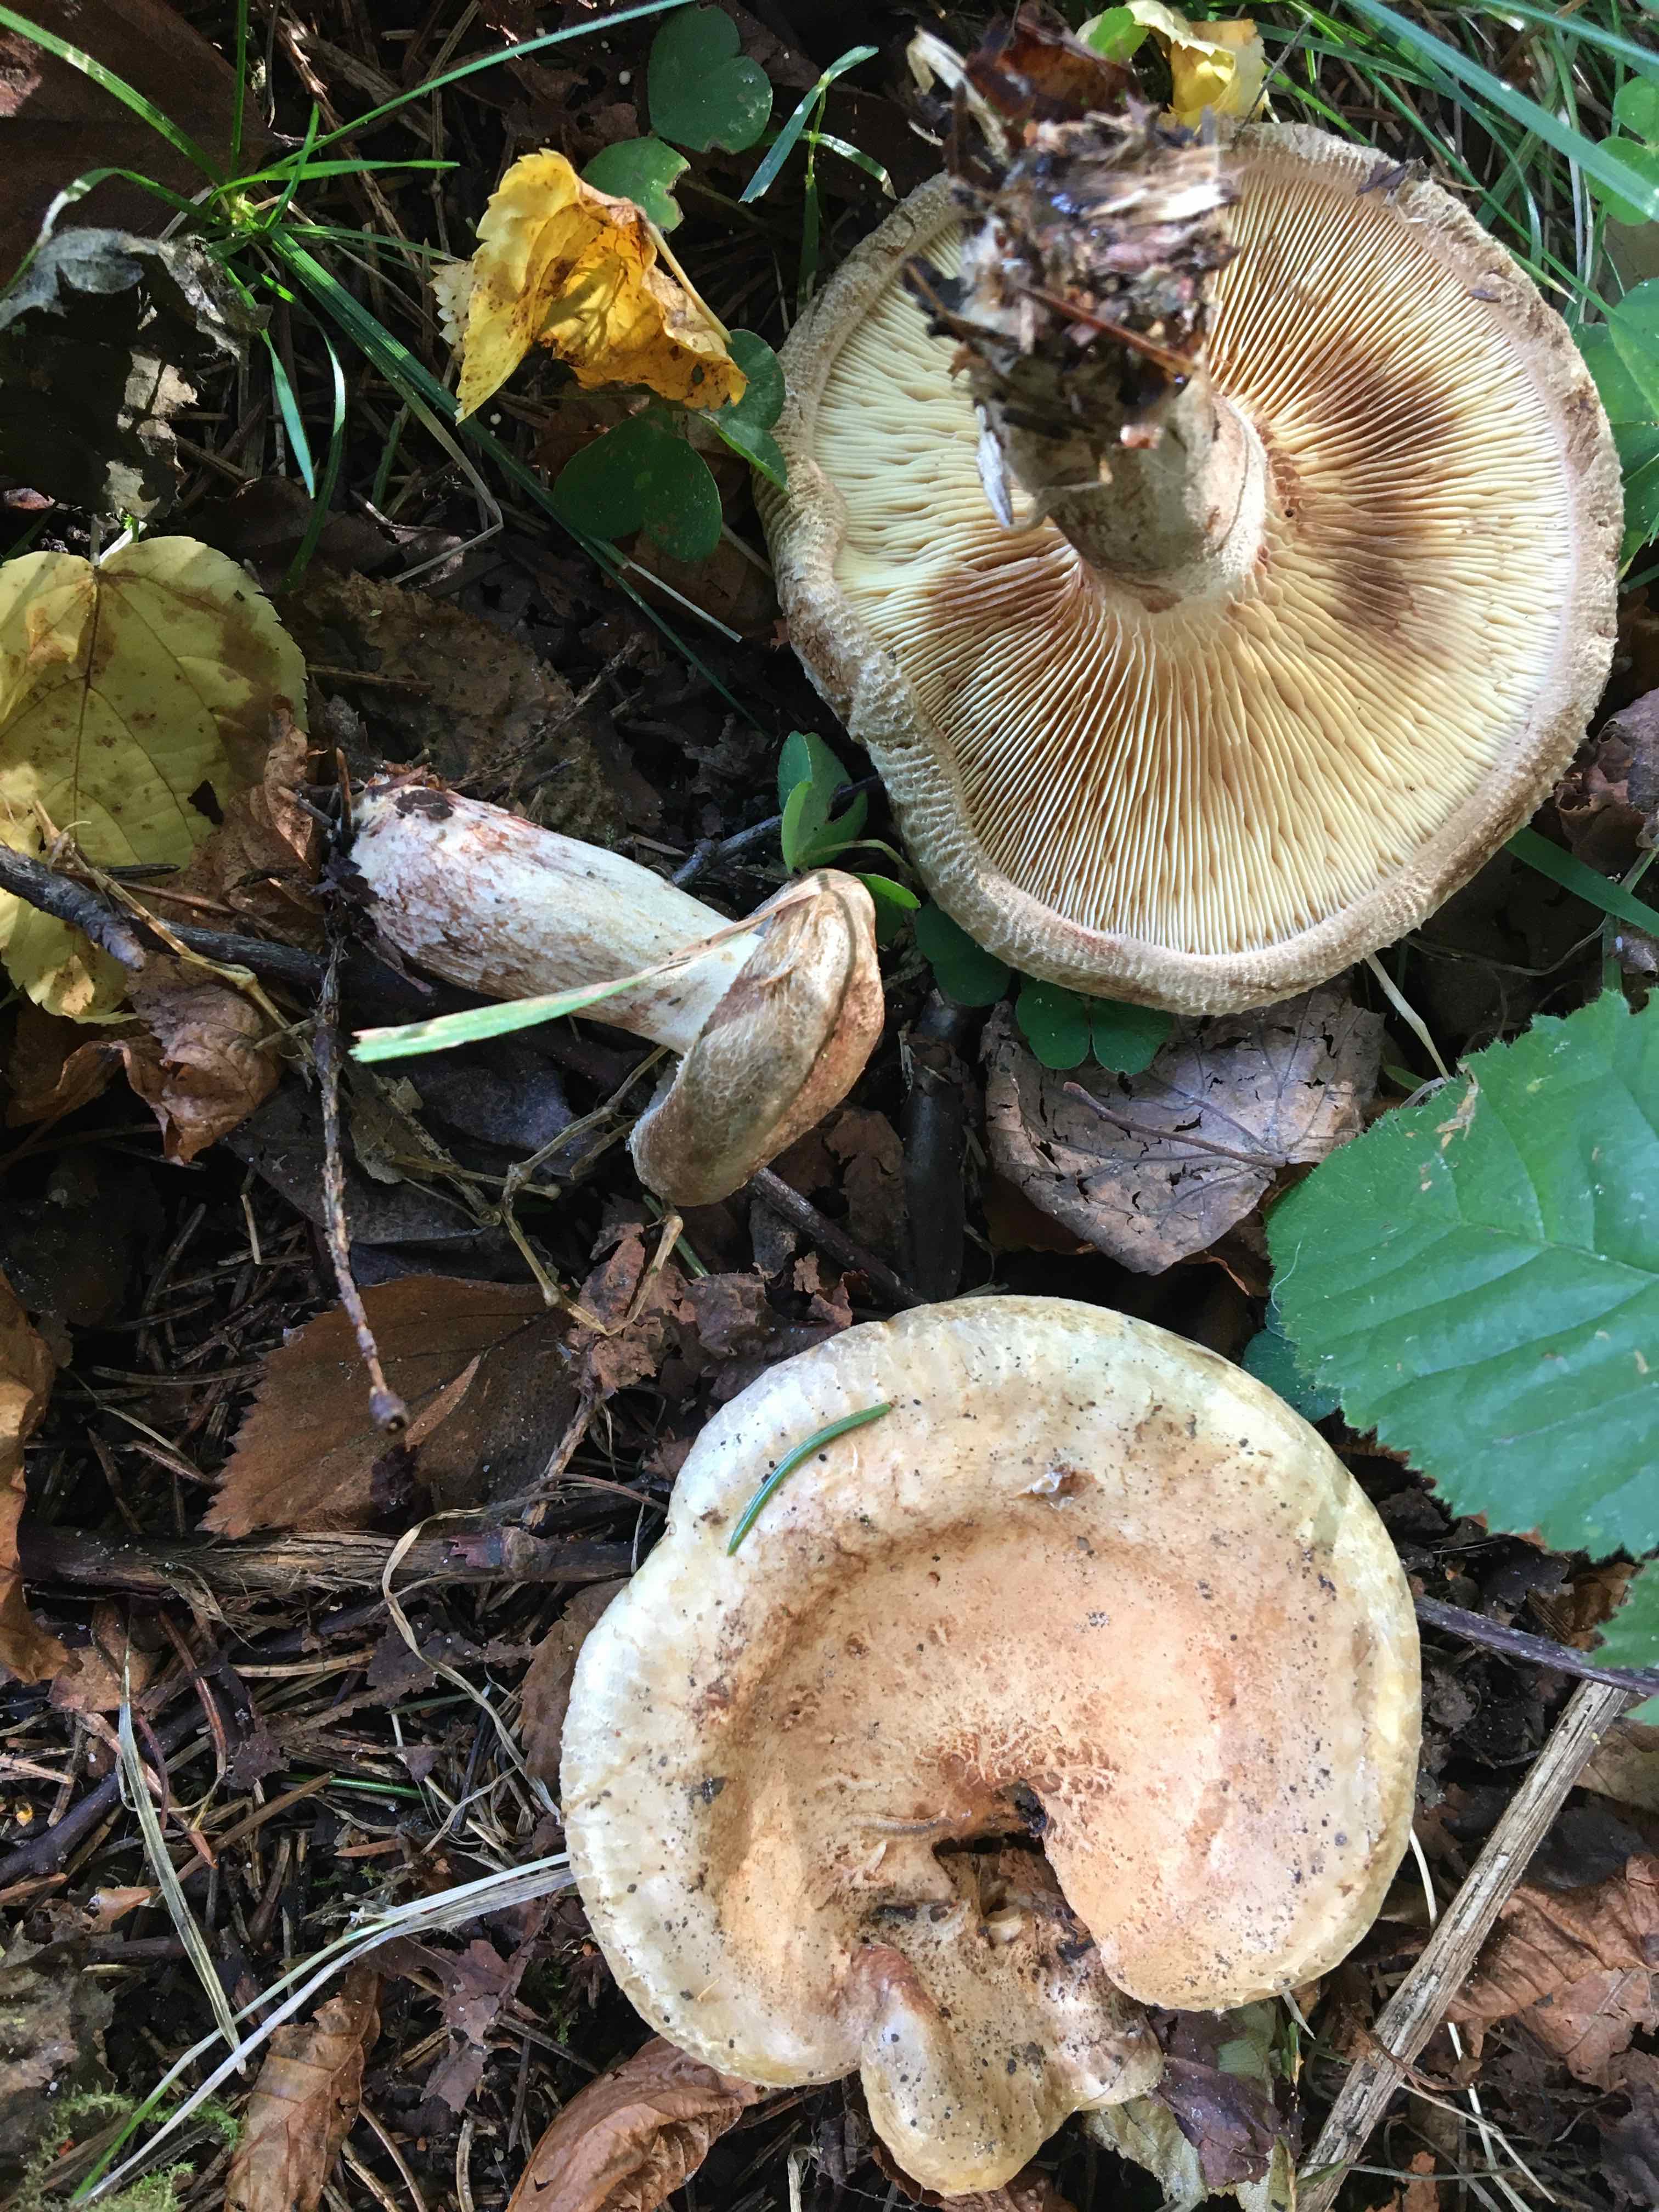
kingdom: Fungi
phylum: Basidiomycota
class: Agaricomycetes
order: Boletales
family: Paxillaceae
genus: Paxillus
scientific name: Paxillus involutus
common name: almindelig netbladhat
